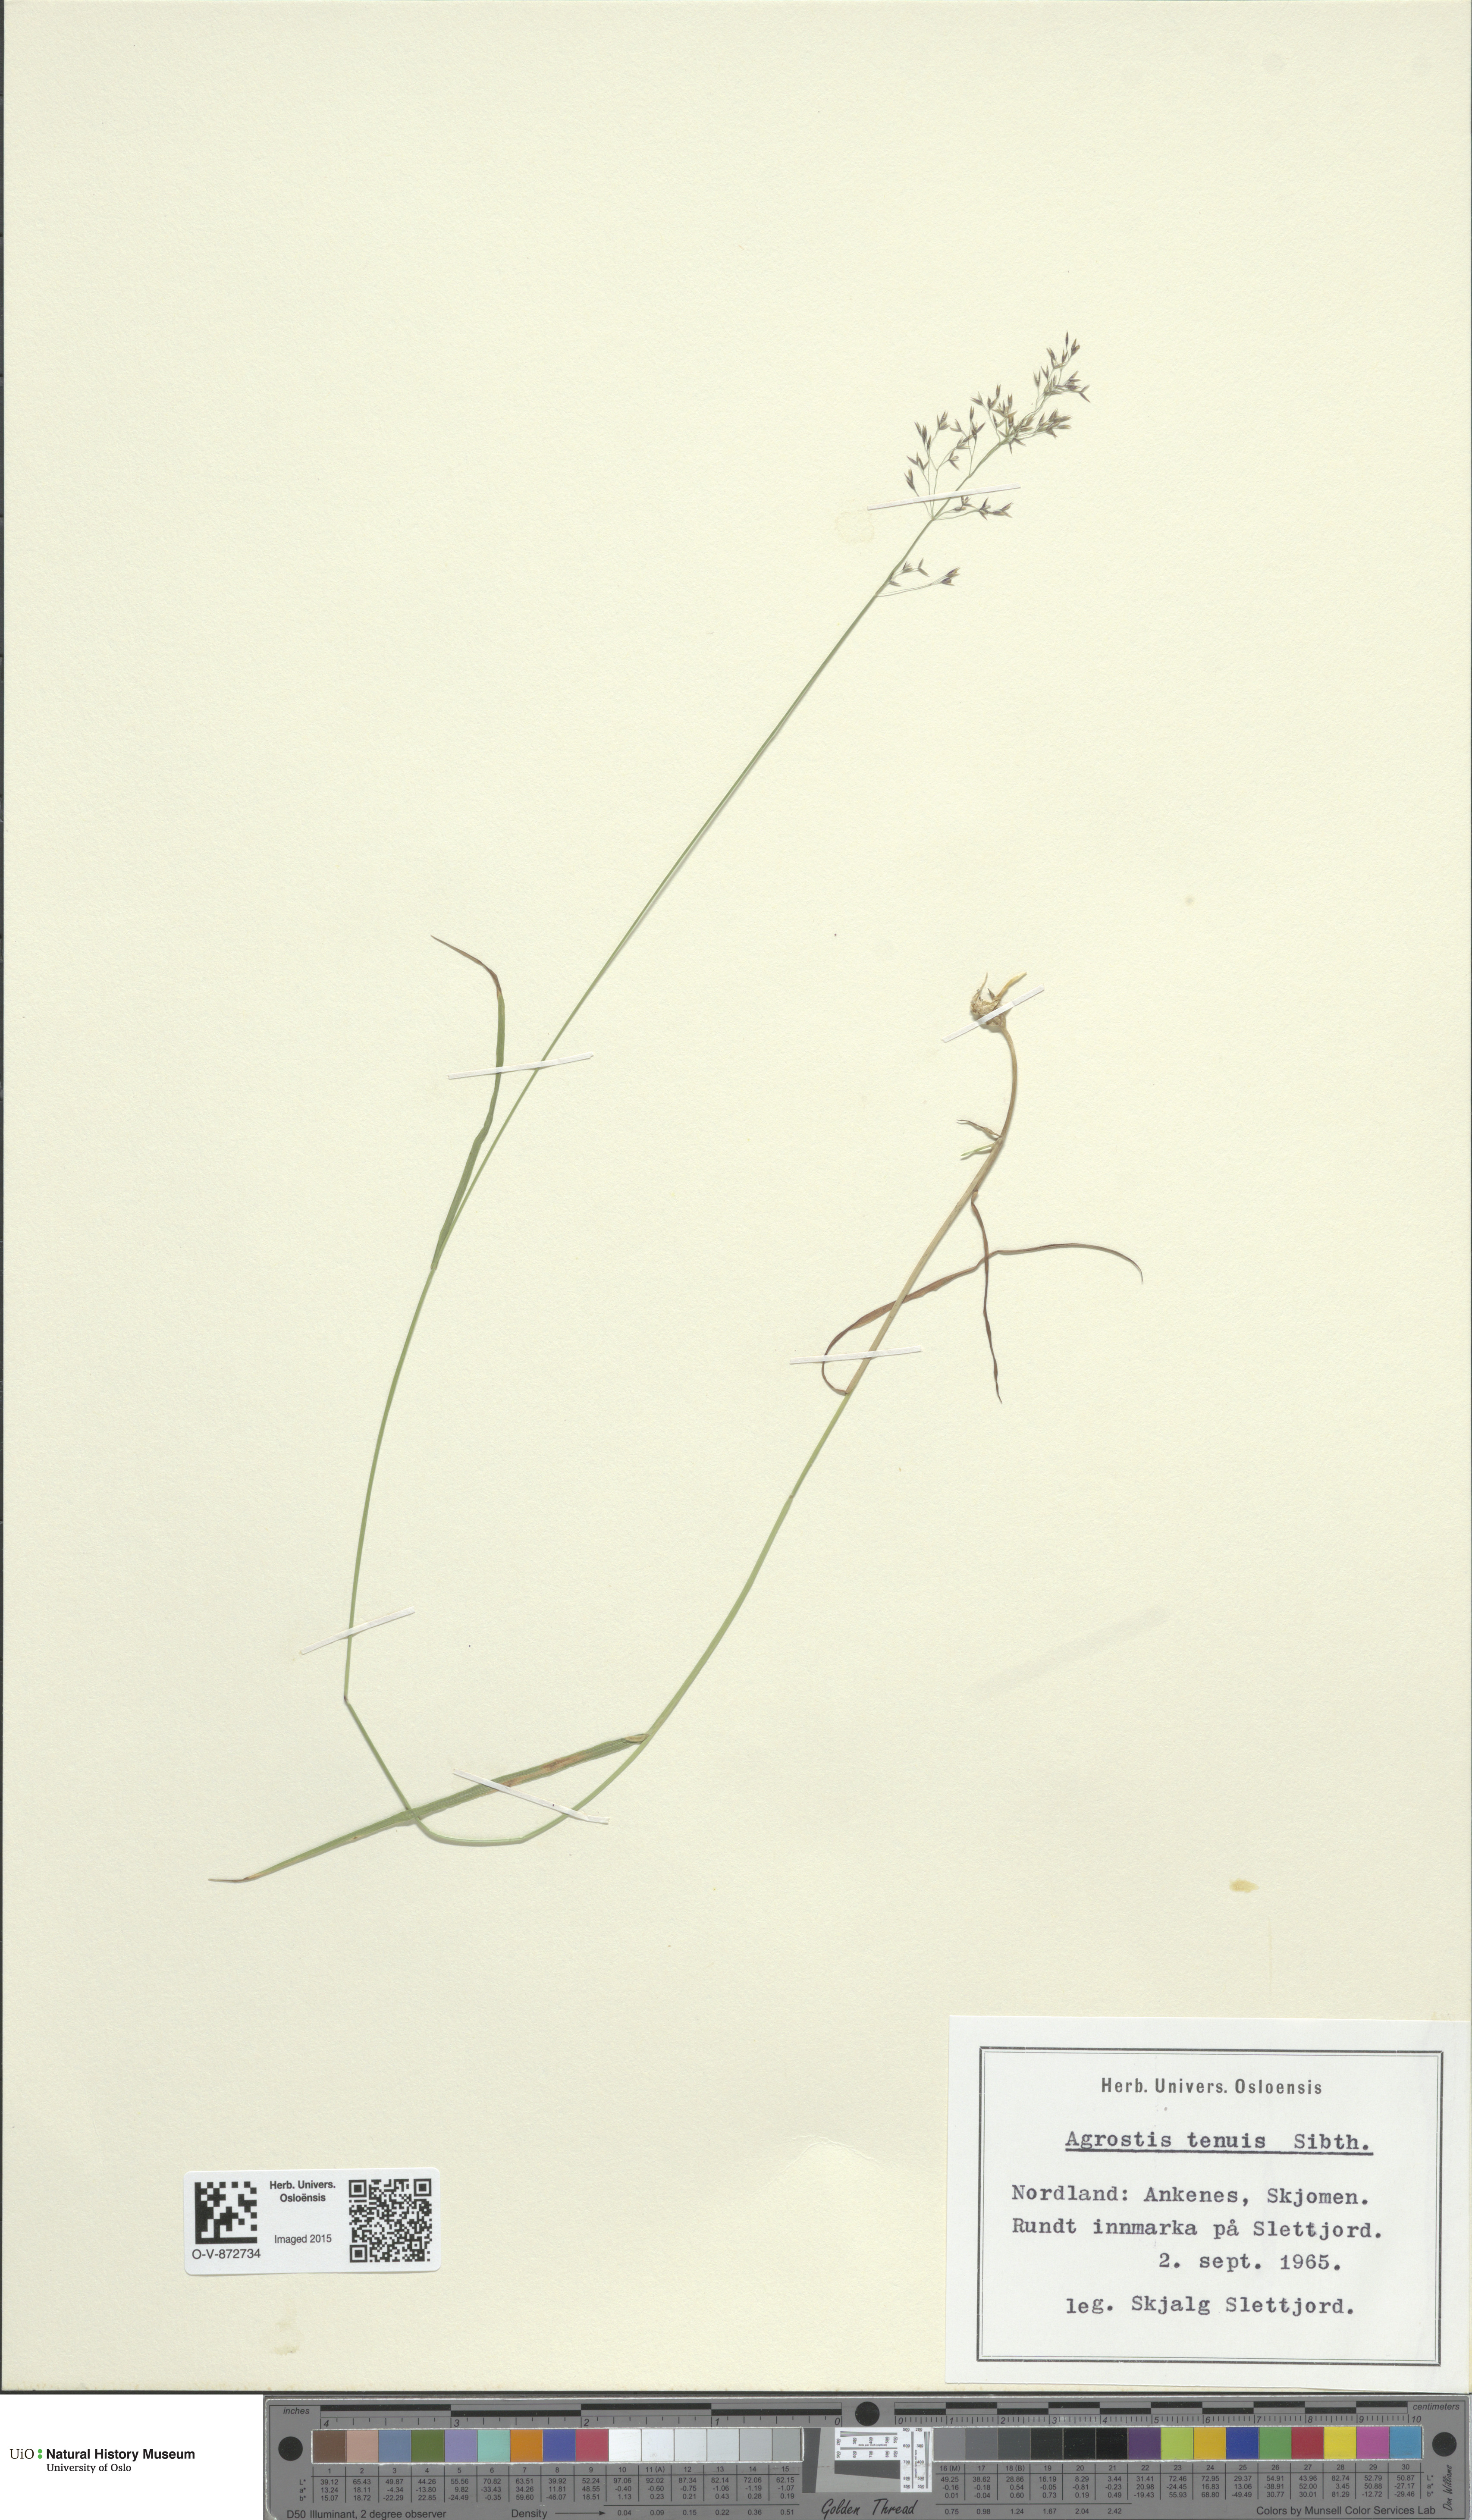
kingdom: Plantae
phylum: Tracheophyta
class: Liliopsida
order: Poales
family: Poaceae
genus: Agrostis
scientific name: Agrostis capillaris
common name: Colonial bentgrass
